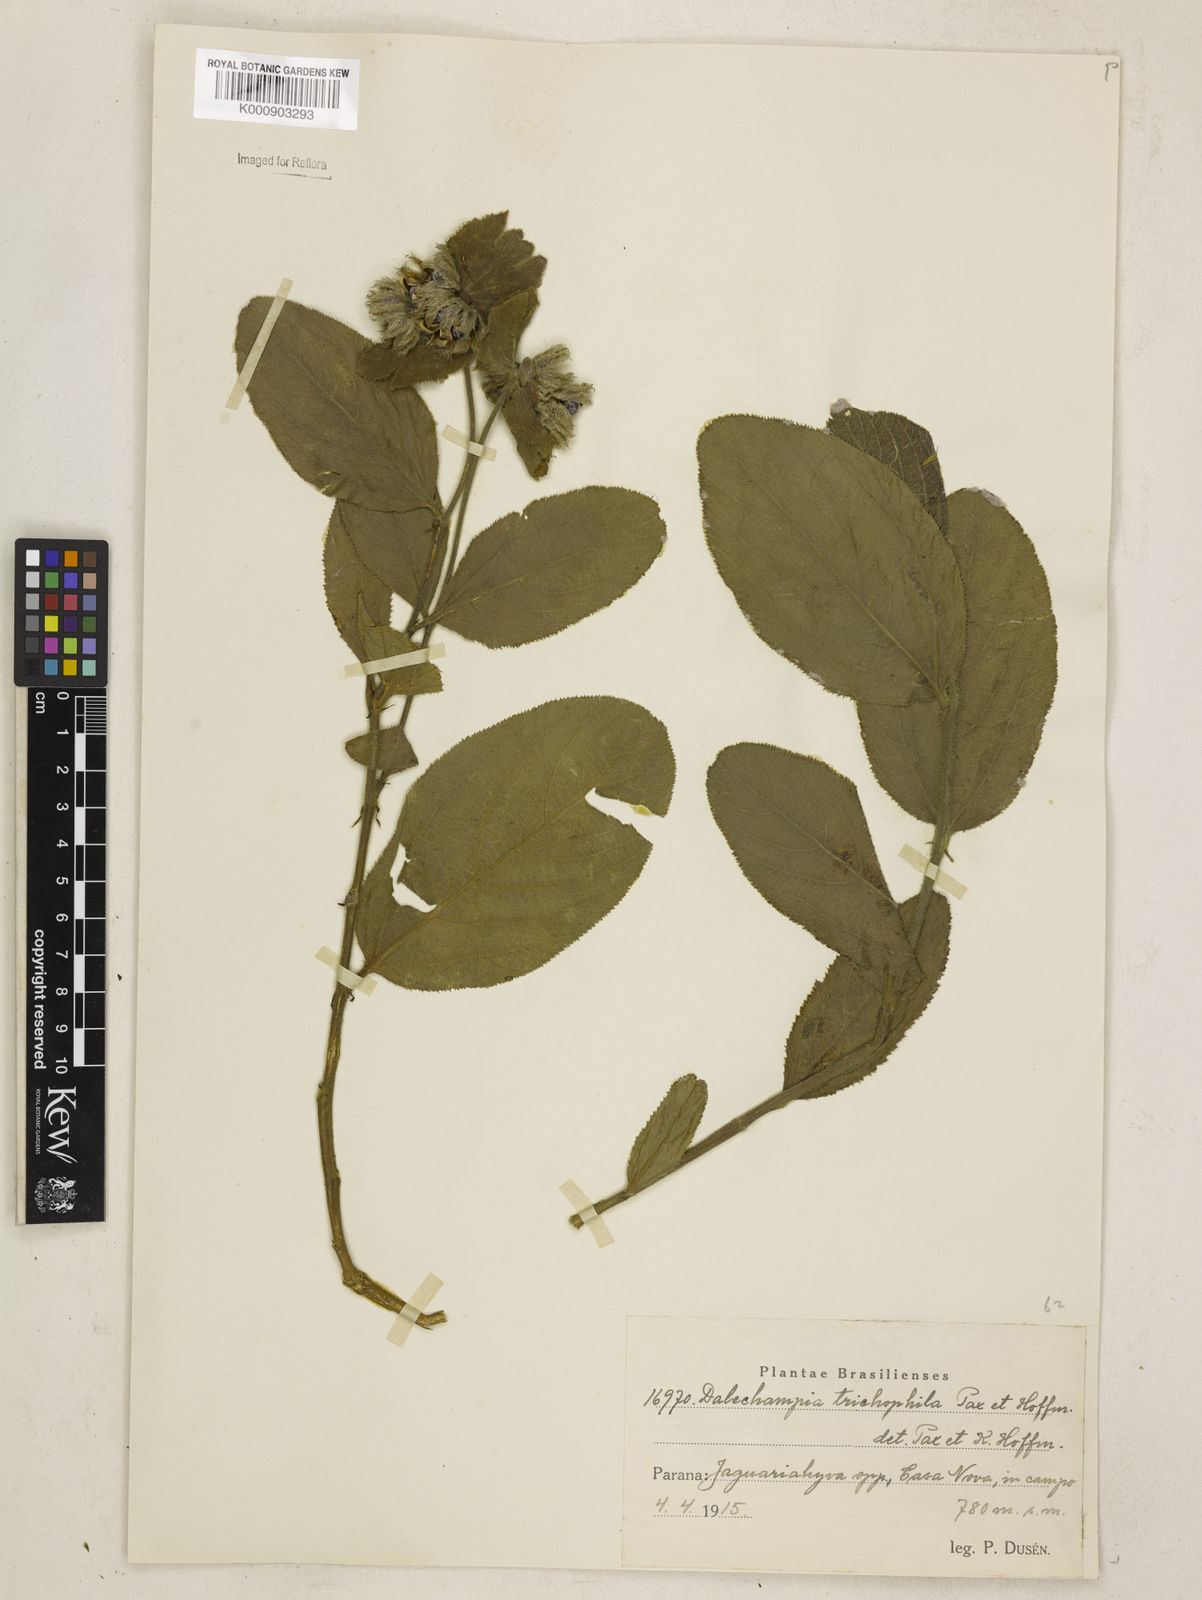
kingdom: Plantae
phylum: Tracheophyta
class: Magnoliopsida
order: Malpighiales
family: Euphorbiaceae
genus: Dalechampia
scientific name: Dalechampia weddelliana
